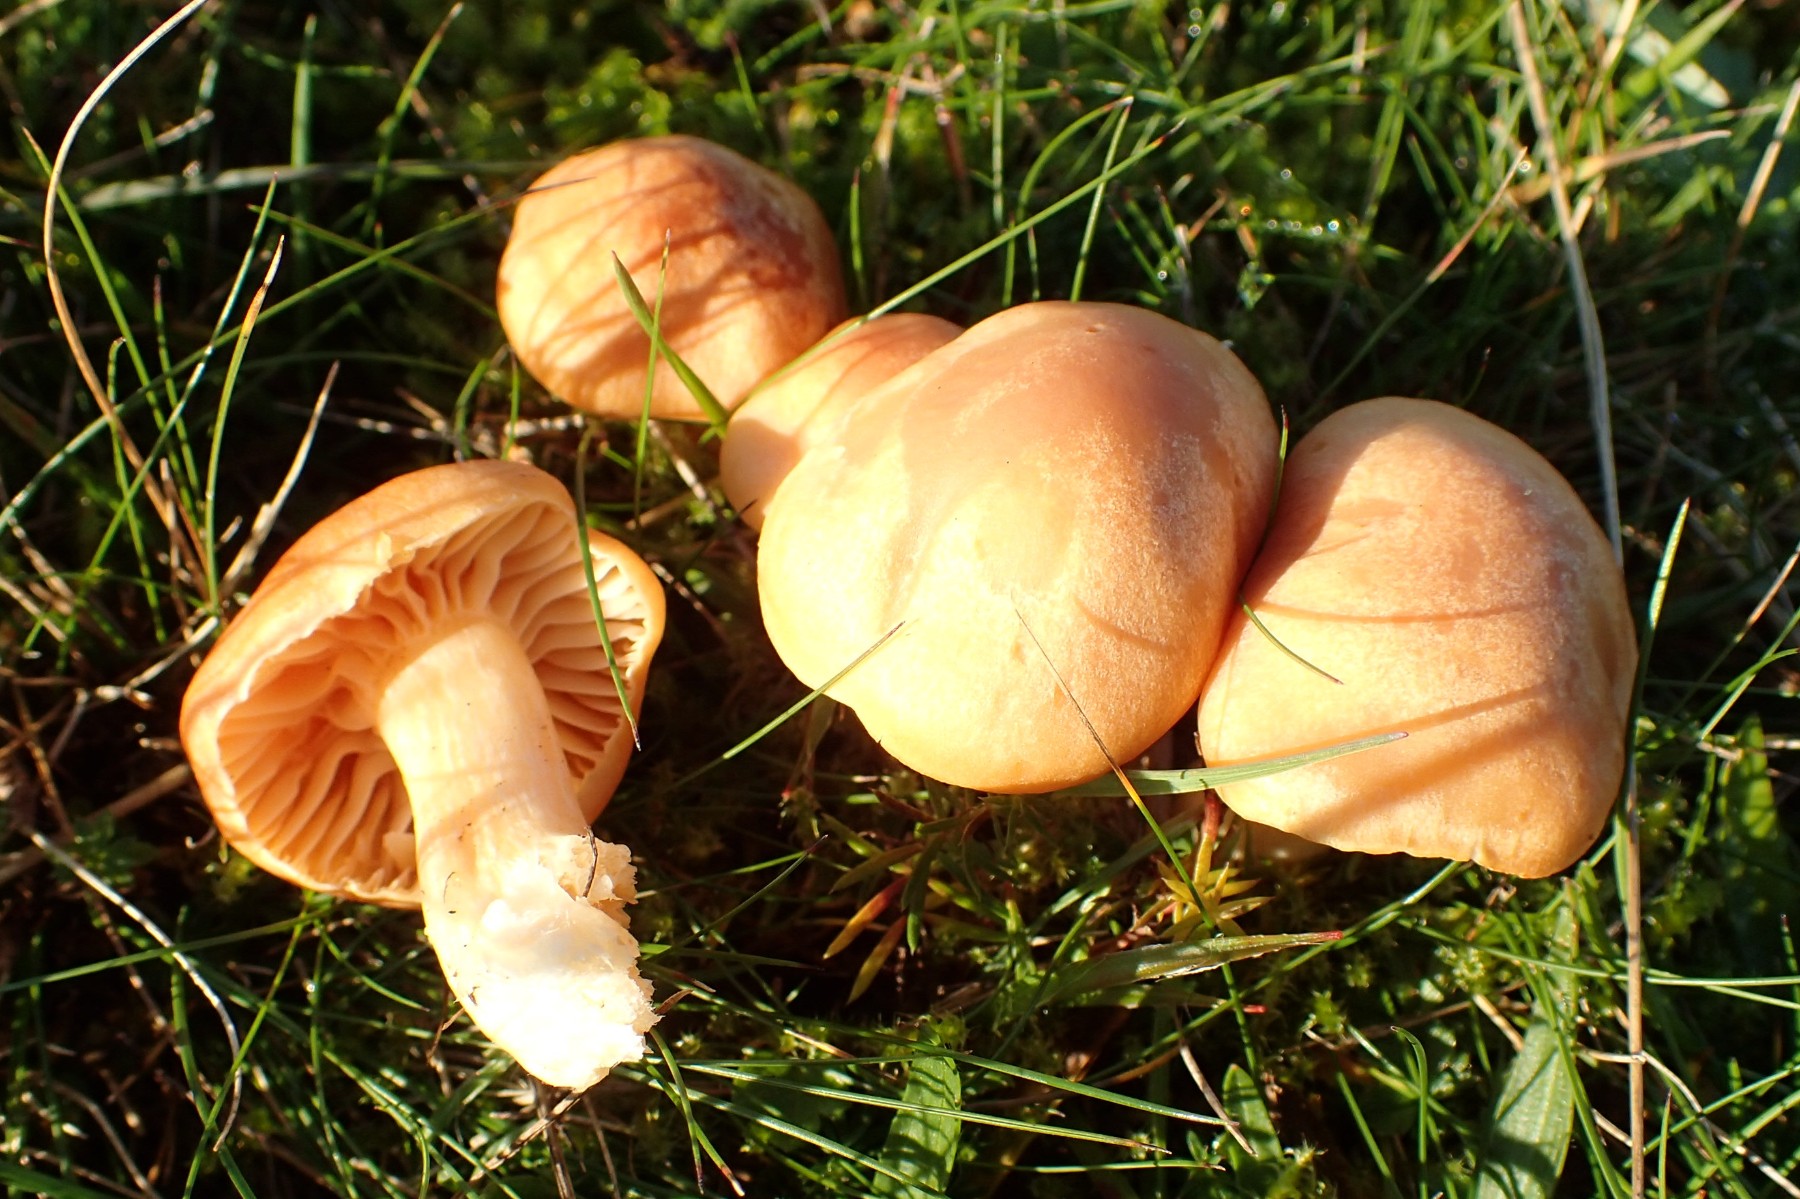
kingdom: Fungi
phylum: Basidiomycota
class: Agaricomycetes
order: Agaricales
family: Hygrophoraceae
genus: Cuphophyllus
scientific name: Cuphophyllus pratensis
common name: eng-vokshat
